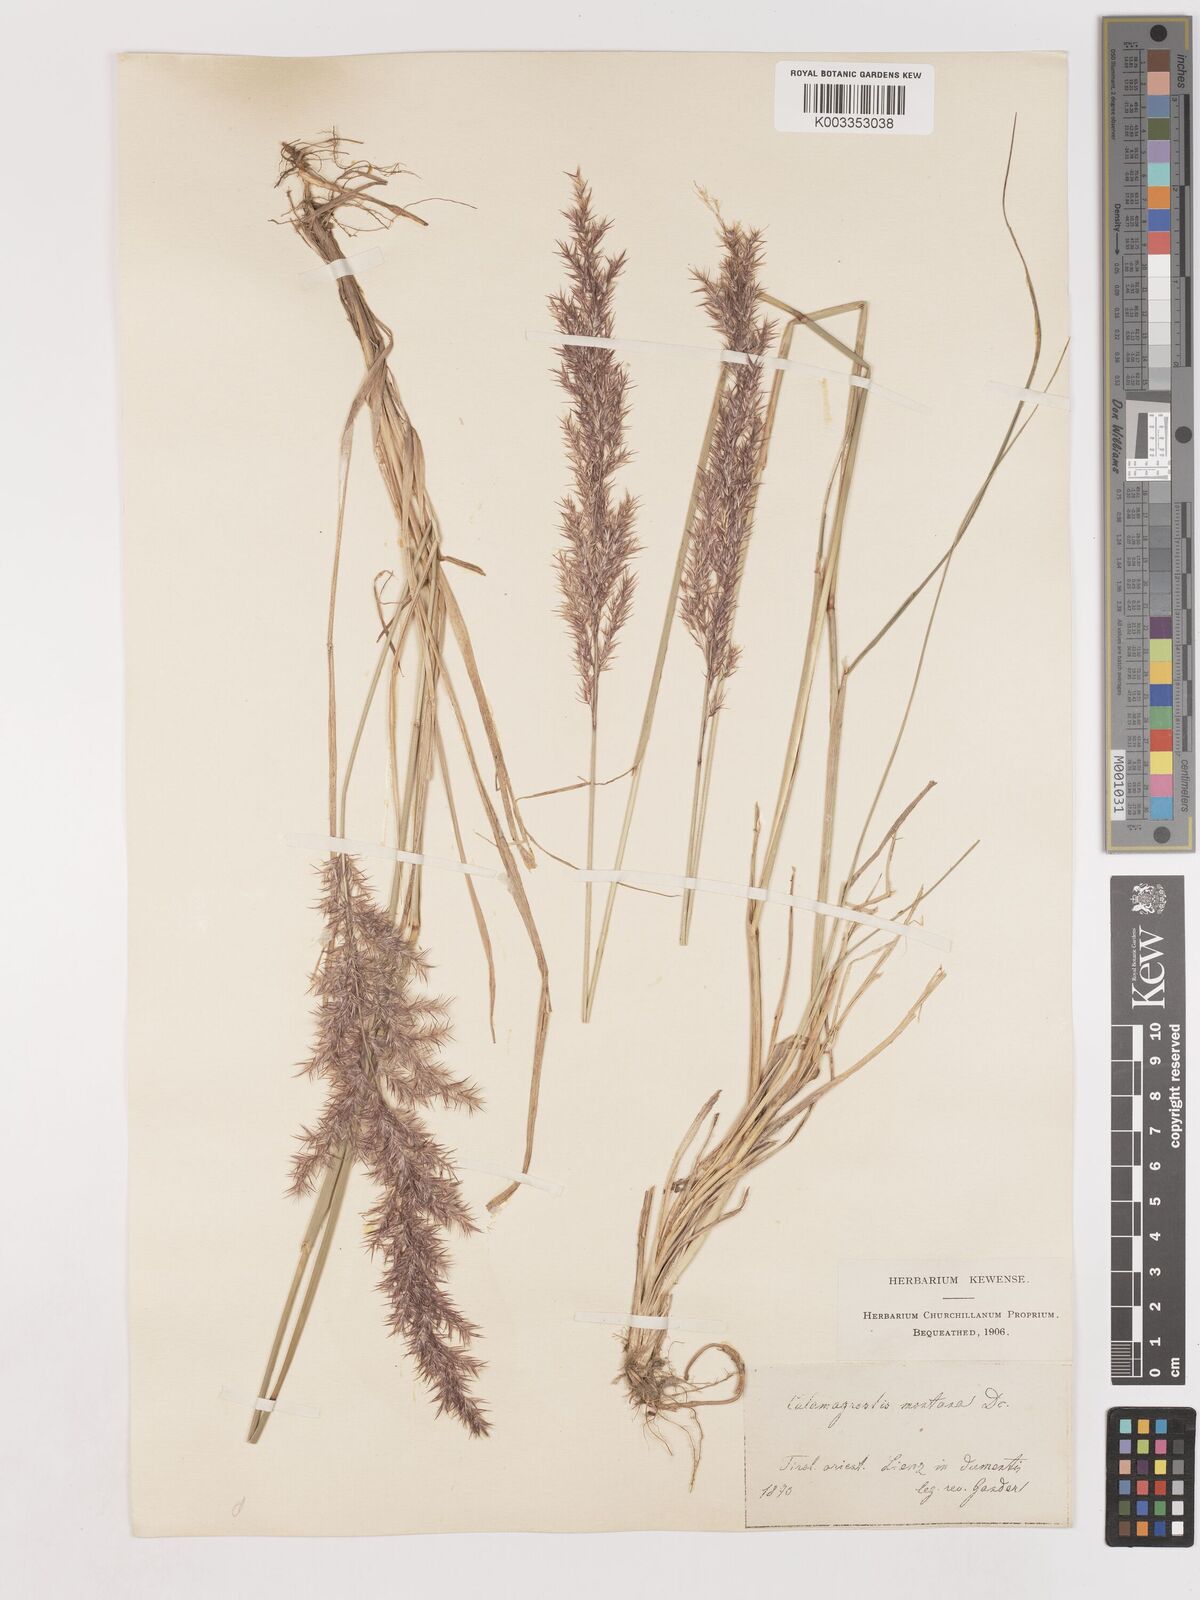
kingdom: Plantae
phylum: Tracheophyta
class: Liliopsida
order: Poales
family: Poaceae
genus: Calamagrostis
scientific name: Calamagrostis epigejos
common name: Wood small-reed
